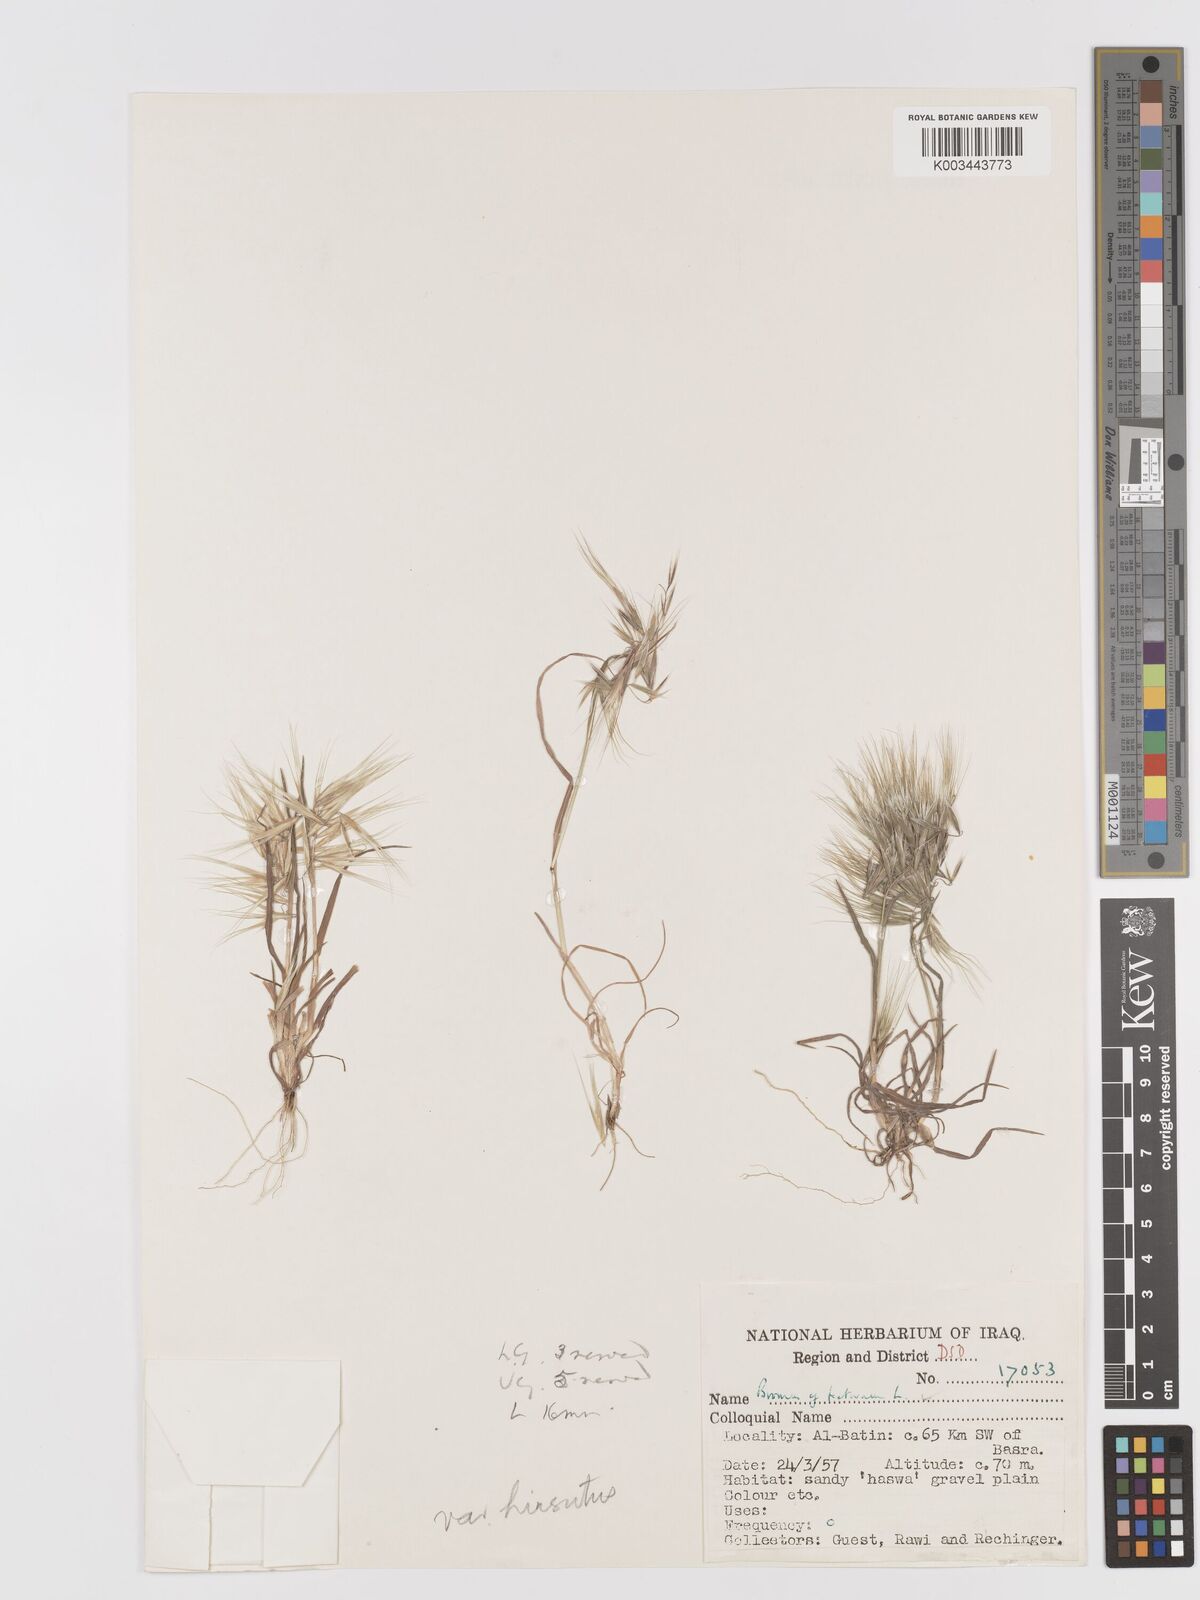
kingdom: Plantae
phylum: Tracheophyta
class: Liliopsida
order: Poales
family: Poaceae
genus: Bromus
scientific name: Bromus tectorum
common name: Cheatgrass
